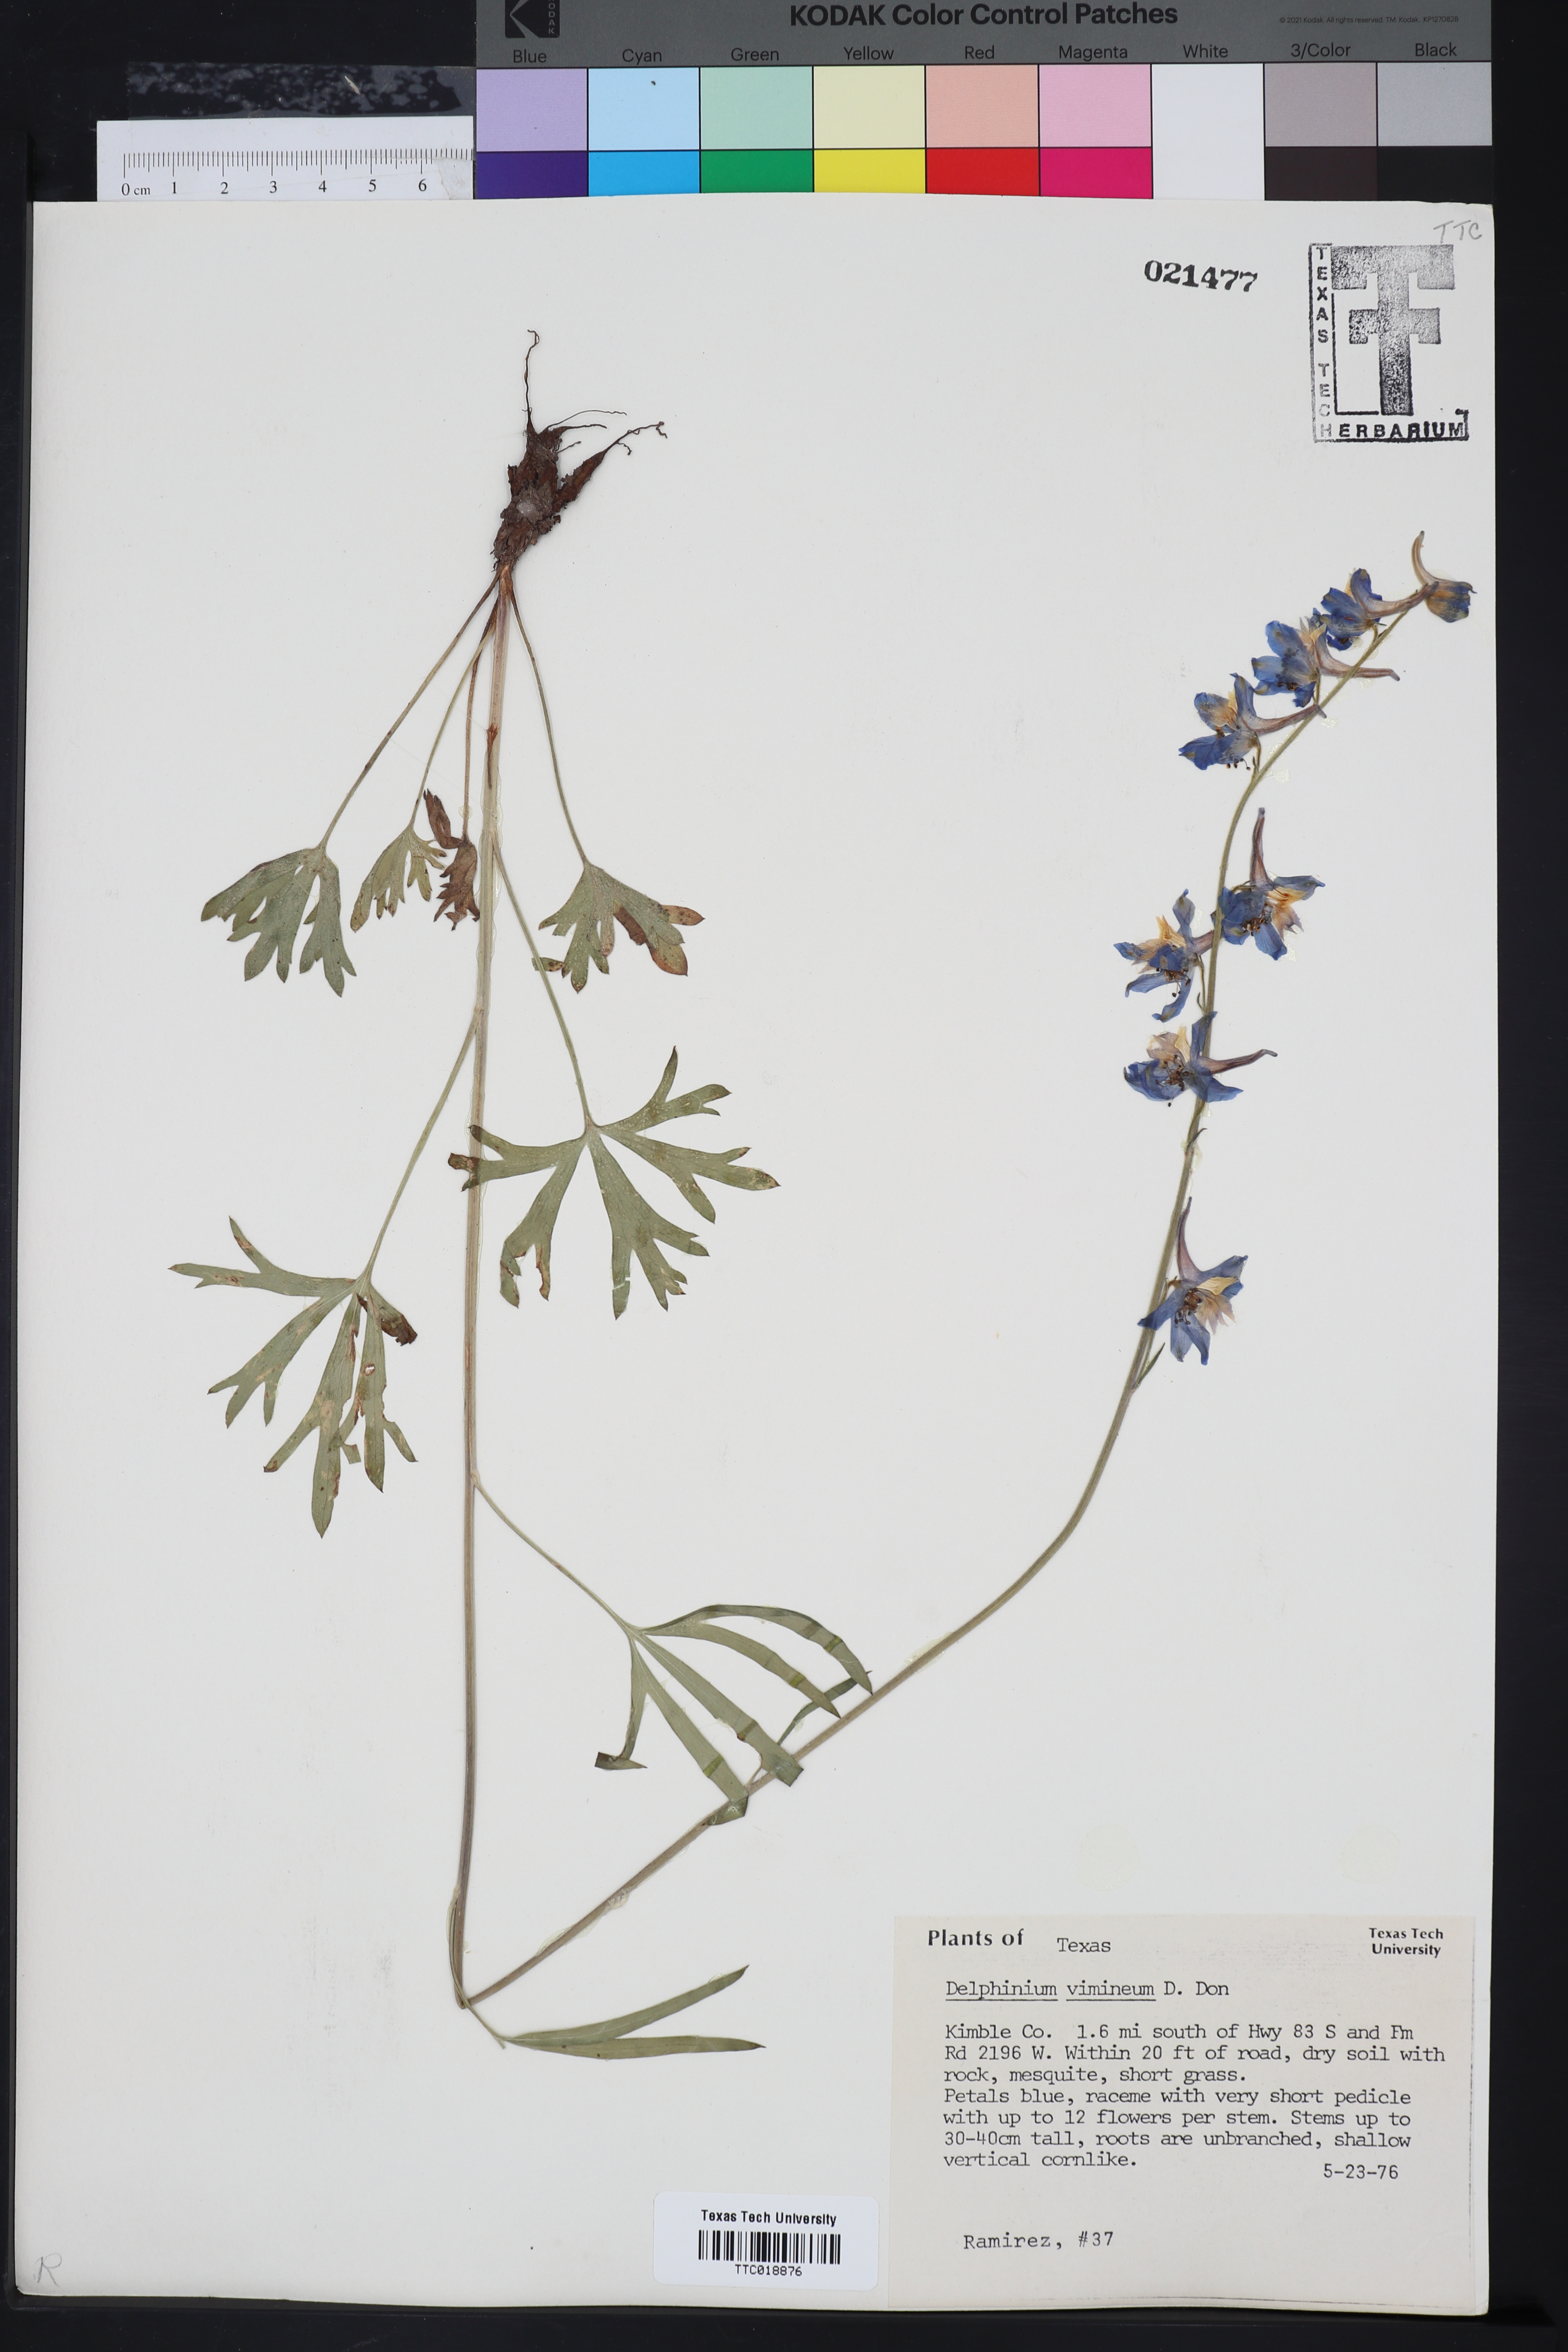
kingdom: Plantae
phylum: Tracheophyta
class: Magnoliopsida
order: Ranunculales
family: Ranunculaceae
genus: Delphinium
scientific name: Delphinium carolinianum
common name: Carolina larkspur
